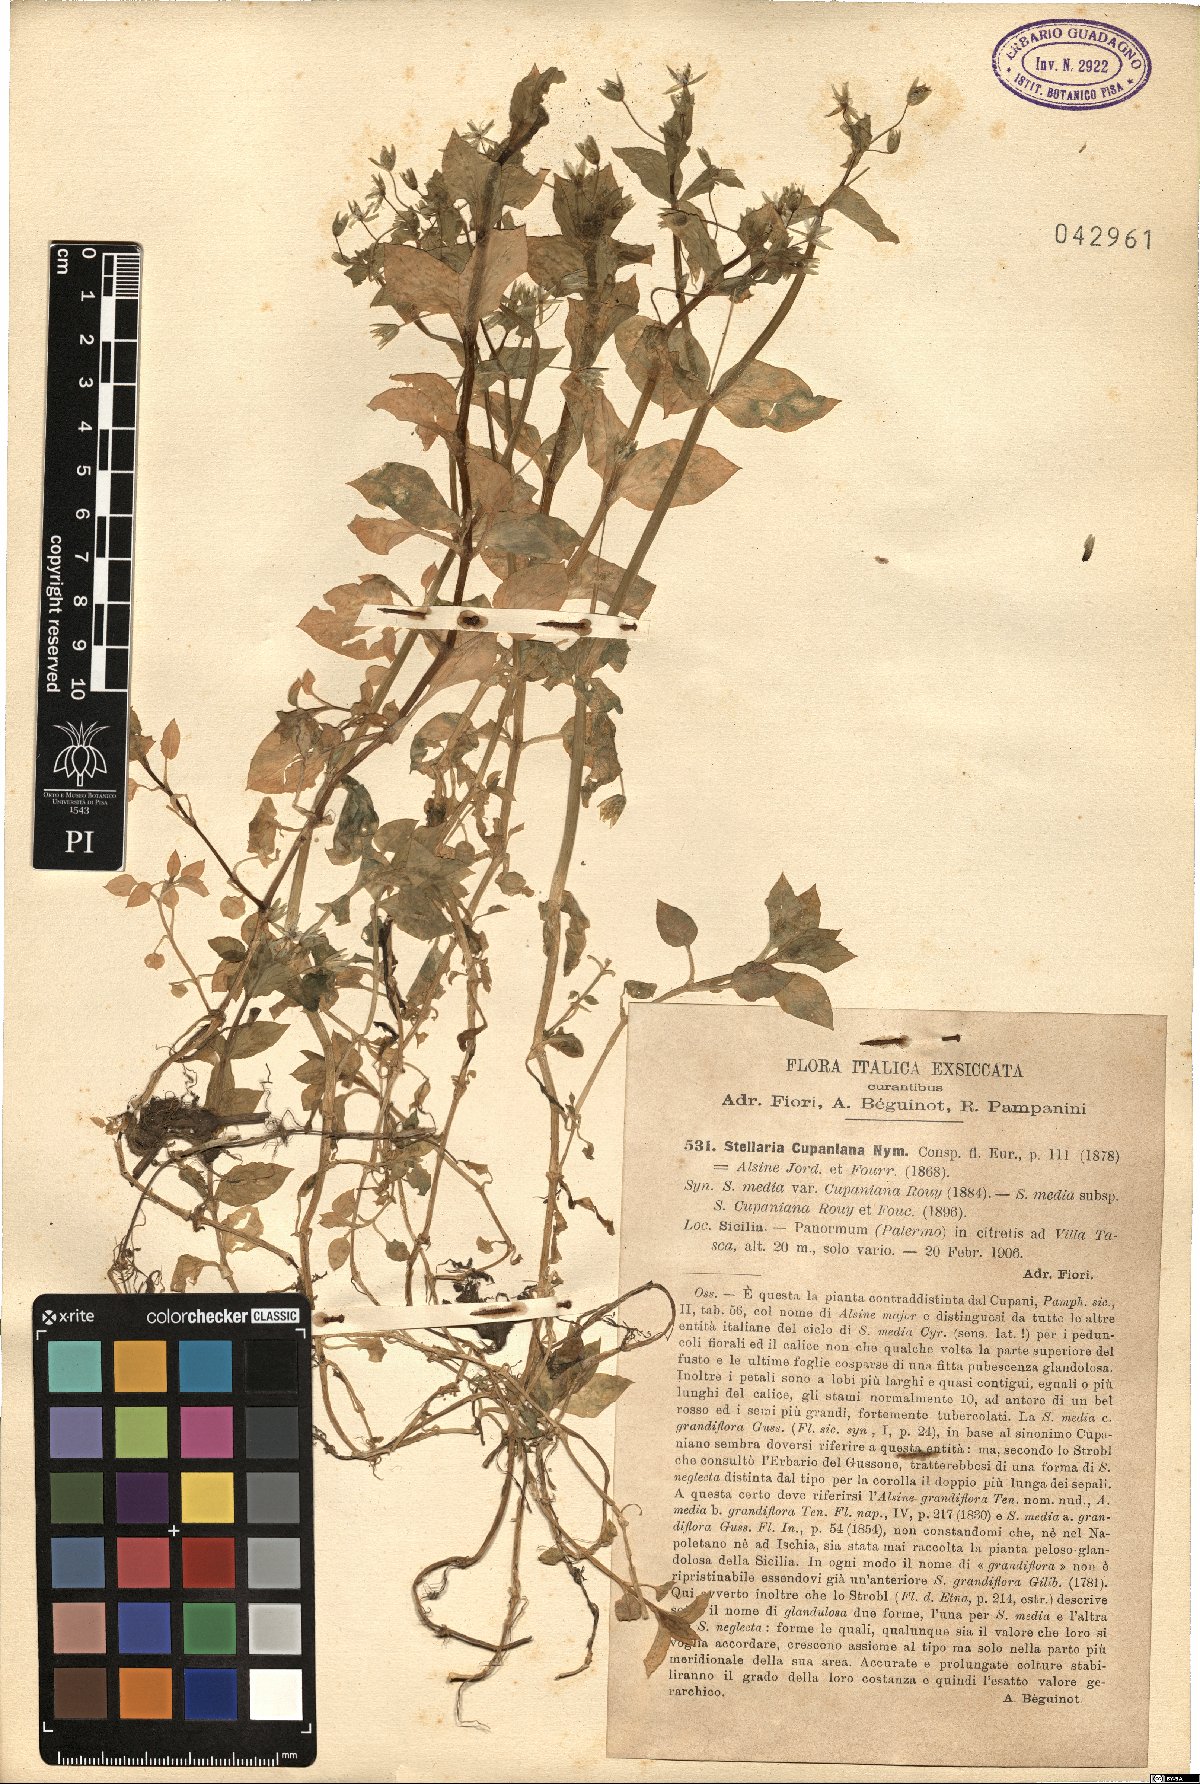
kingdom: Plantae
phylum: Tracheophyta
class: Magnoliopsida
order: Caryophyllales
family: Caryophyllaceae
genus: Stellaria
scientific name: Stellaria cupaniana
